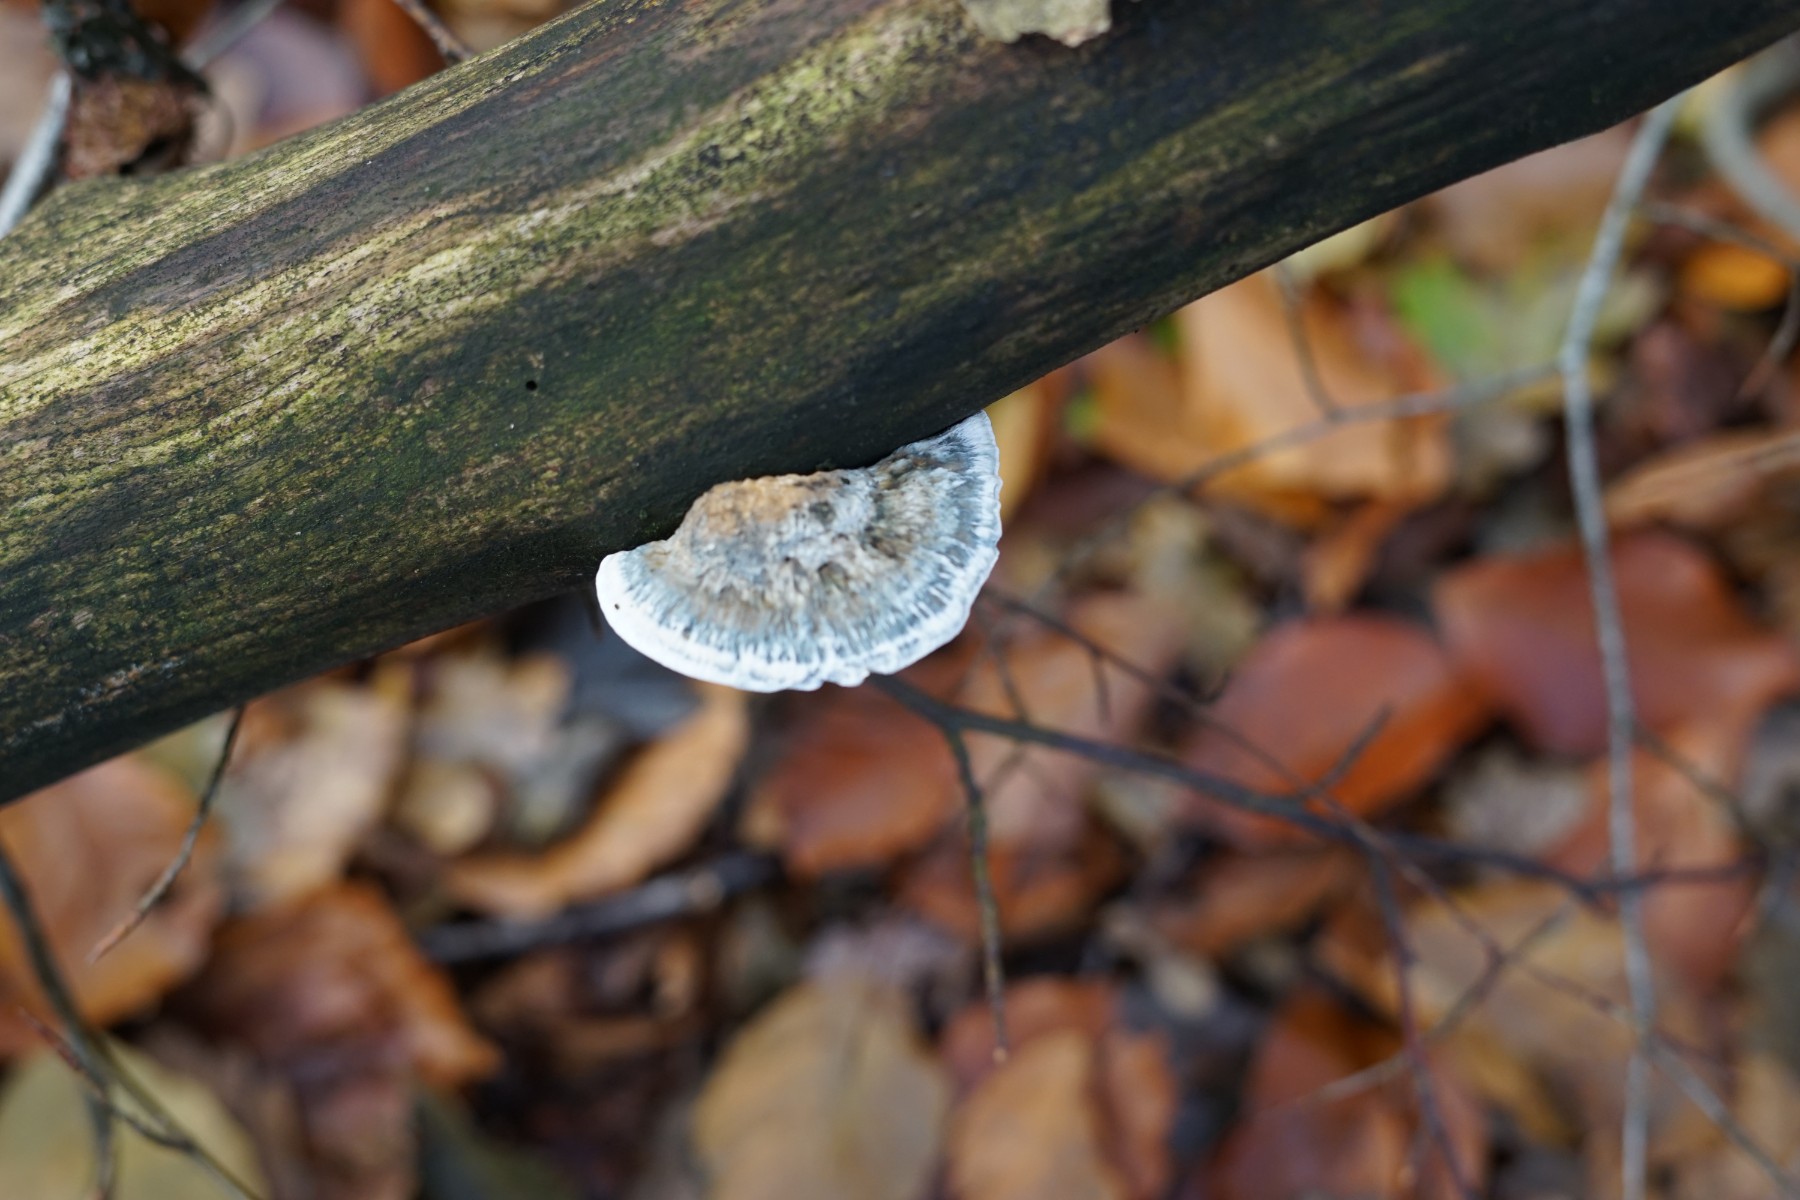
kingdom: Fungi
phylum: Basidiomycota
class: Agaricomycetes
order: Polyporales
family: Polyporaceae
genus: Cyanosporus
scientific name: Cyanosporus caesius
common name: blålig kødporesvamp
